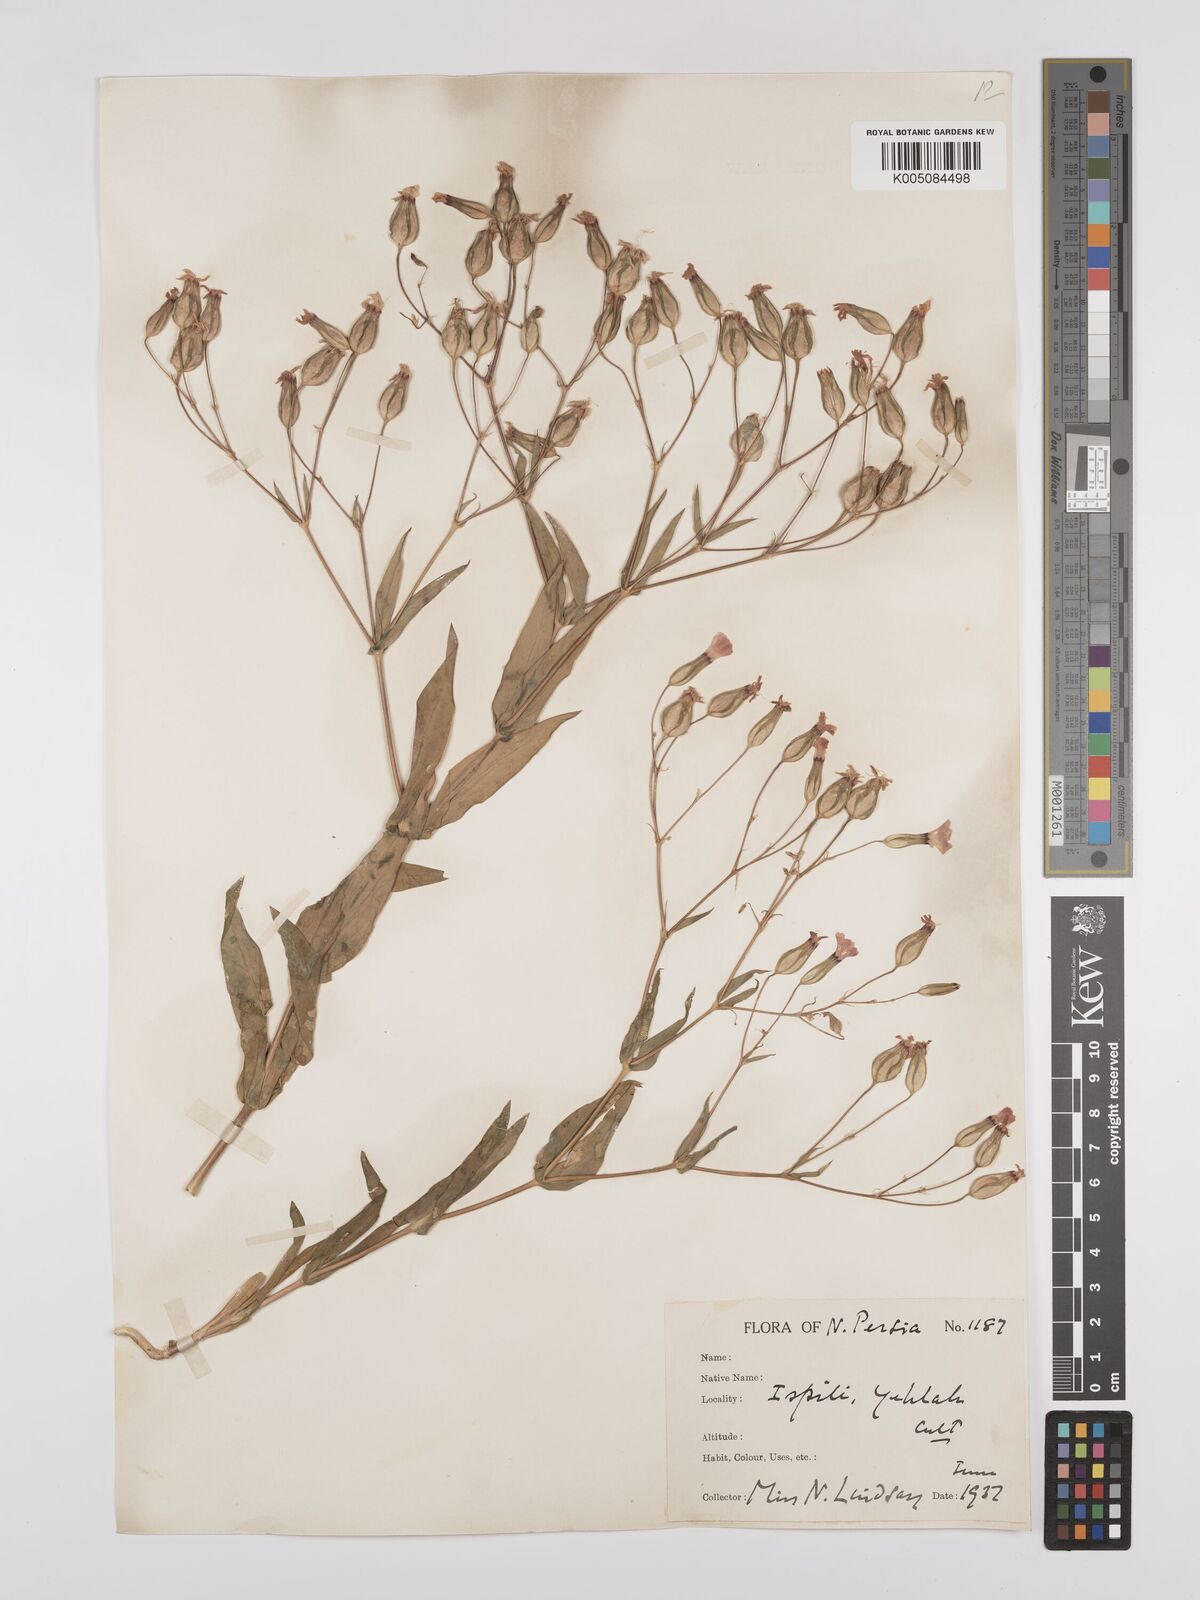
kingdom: Plantae
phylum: Tracheophyta
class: Magnoliopsida
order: Caryophyllales
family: Caryophyllaceae
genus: Gypsophila
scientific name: Gypsophila vaccaria
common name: Cow soapwort
